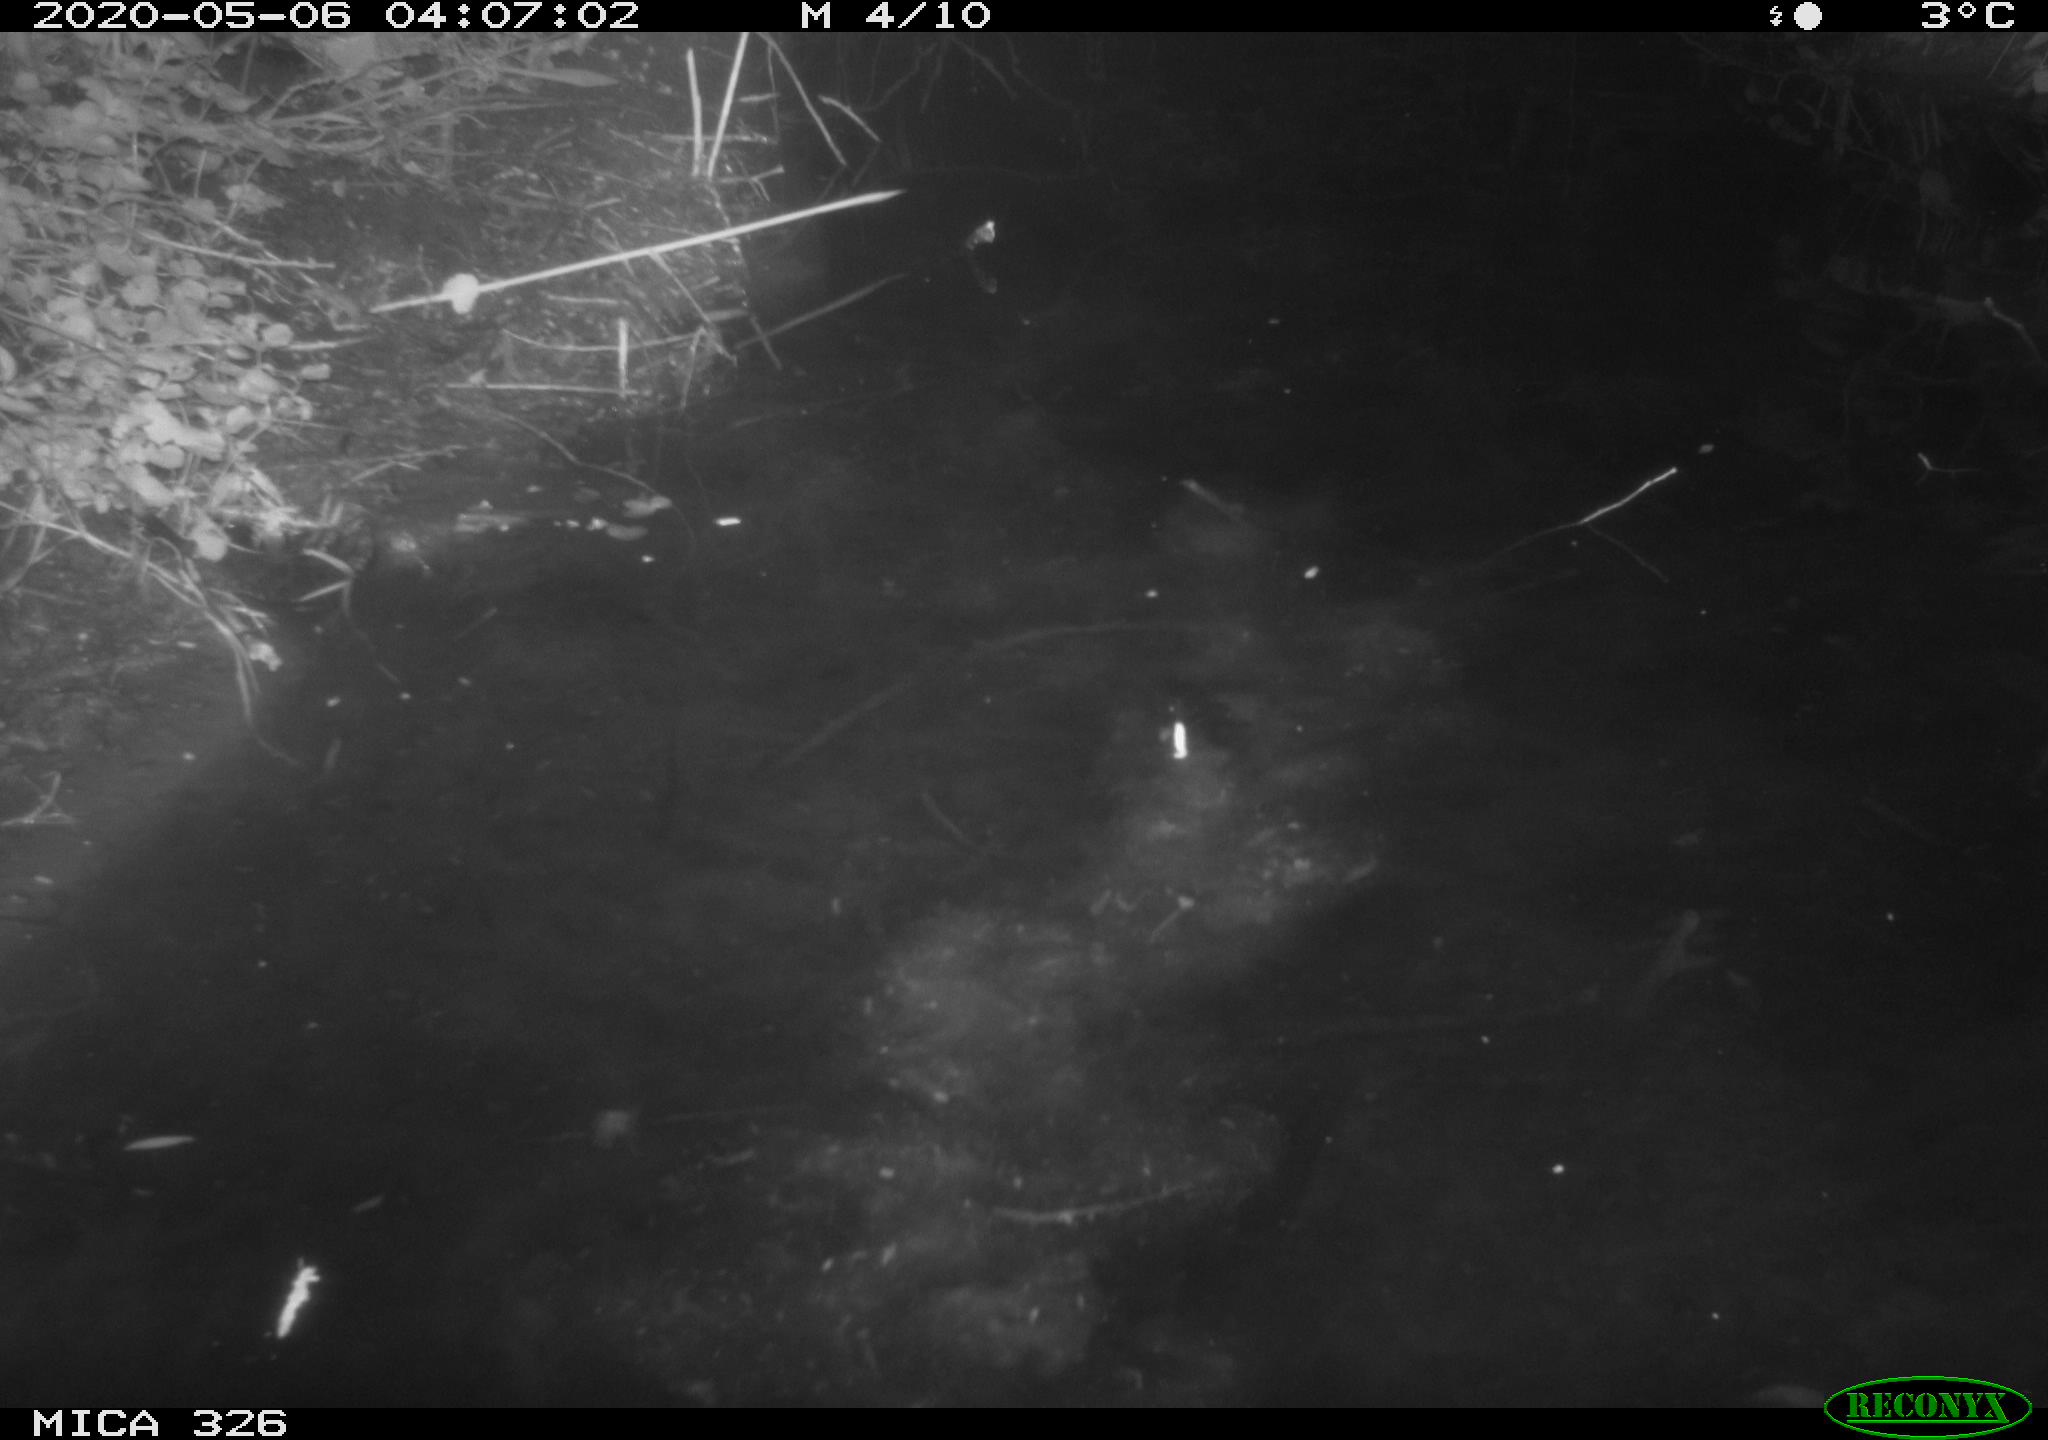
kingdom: Animalia
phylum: Chordata
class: Mammalia
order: Rodentia
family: Cricetidae
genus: Ondatra
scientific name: Ondatra zibethicus
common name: Muskrat
